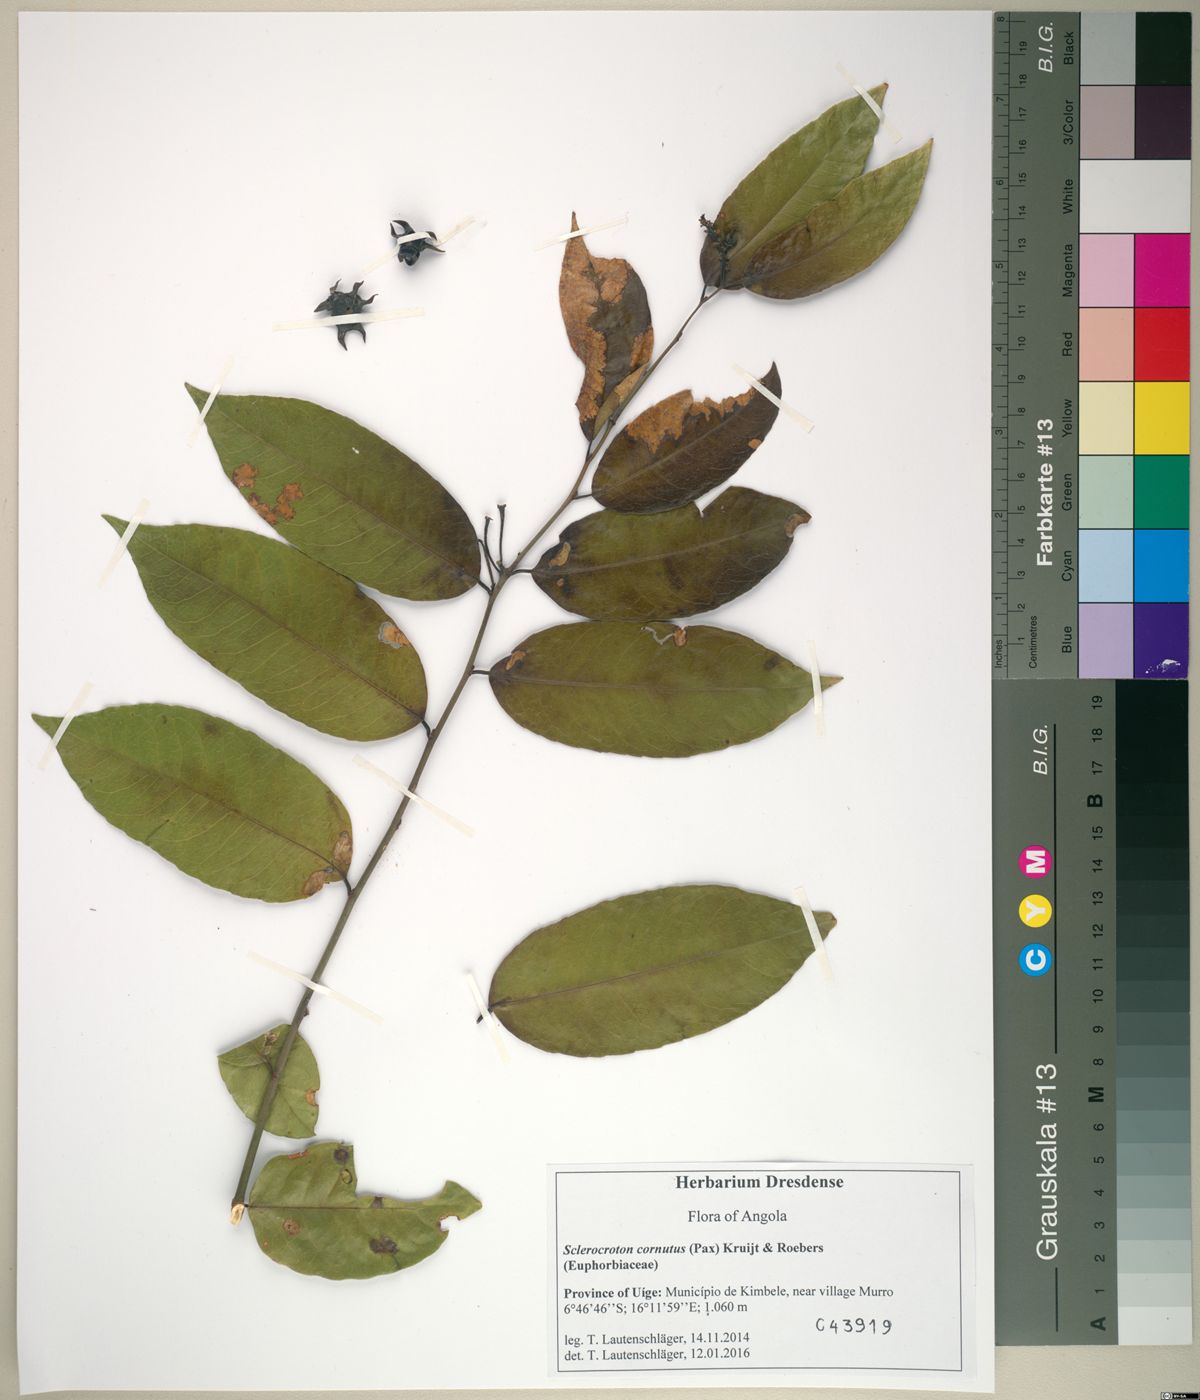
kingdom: Plantae
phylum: Tracheophyta
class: Magnoliopsida
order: Malpighiales
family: Euphorbiaceae
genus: Sclerocroton
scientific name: Sclerocroton cornutus
